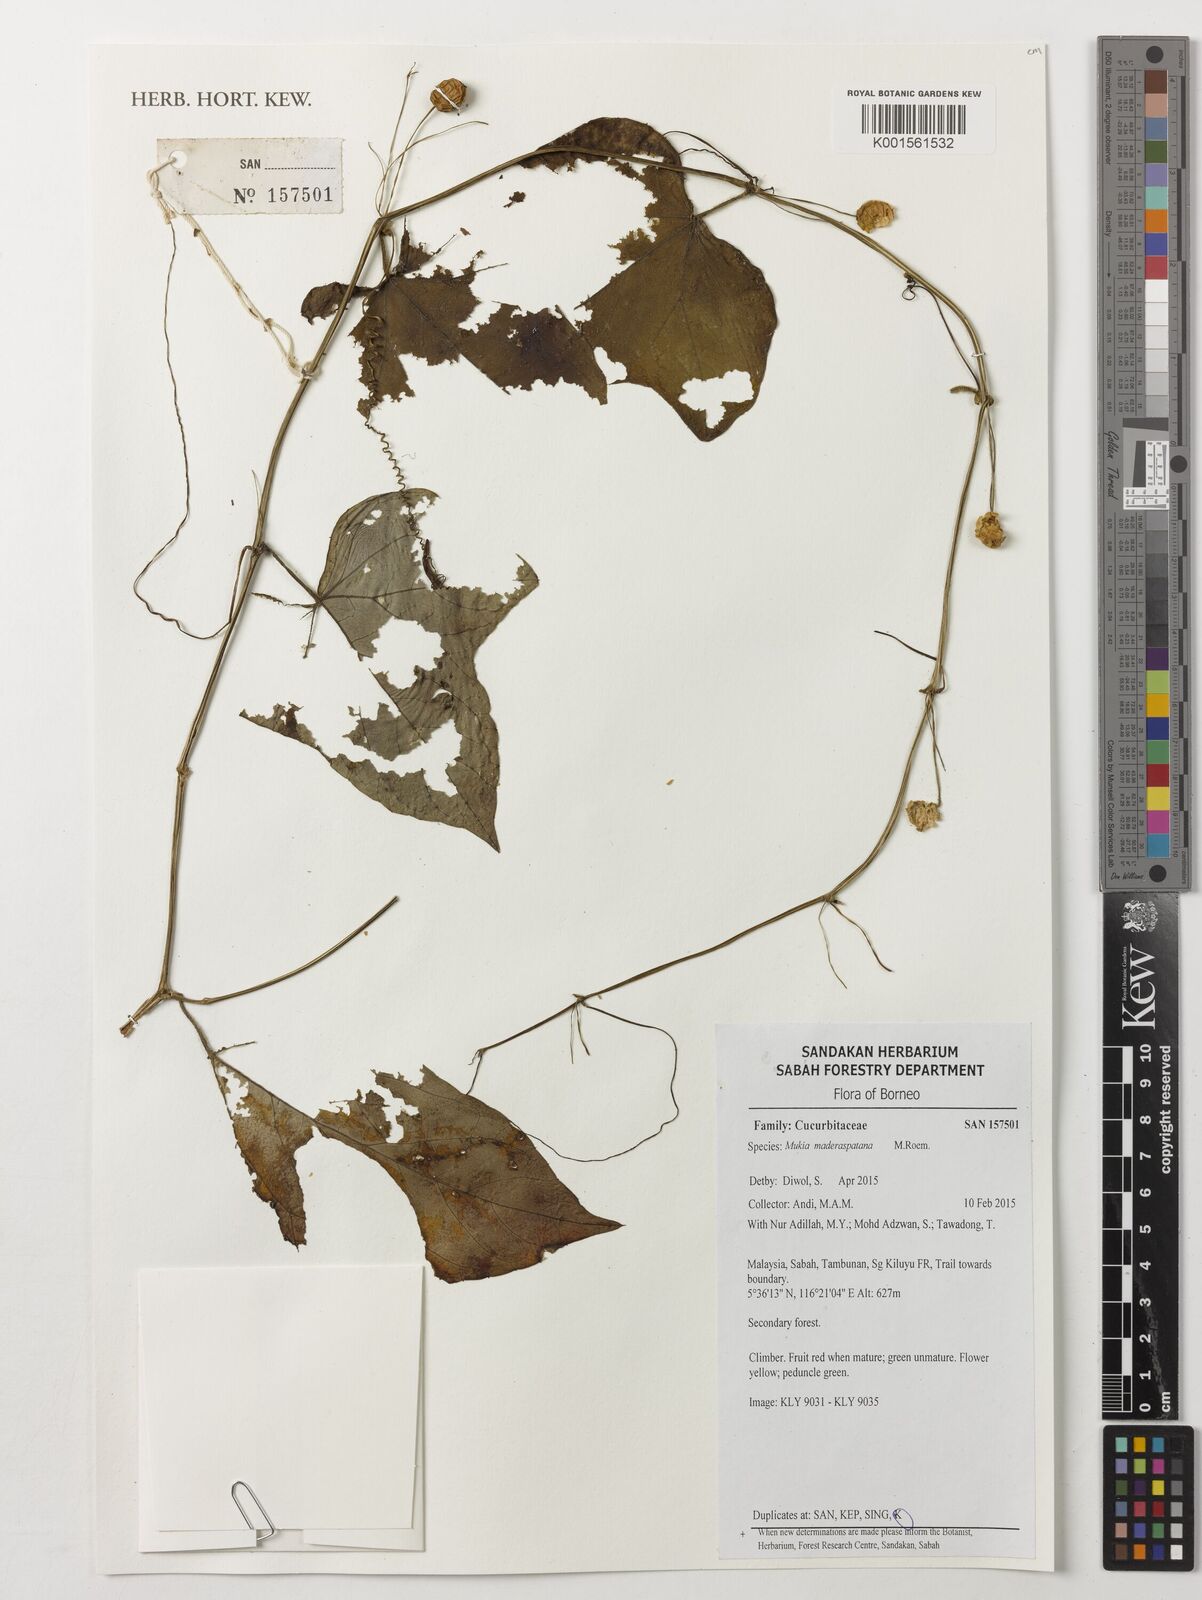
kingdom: Plantae
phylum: Tracheophyta
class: Magnoliopsida
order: Cucurbitales
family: Cucurbitaceae
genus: Cucumis
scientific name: Cucumis maderaspatanus
